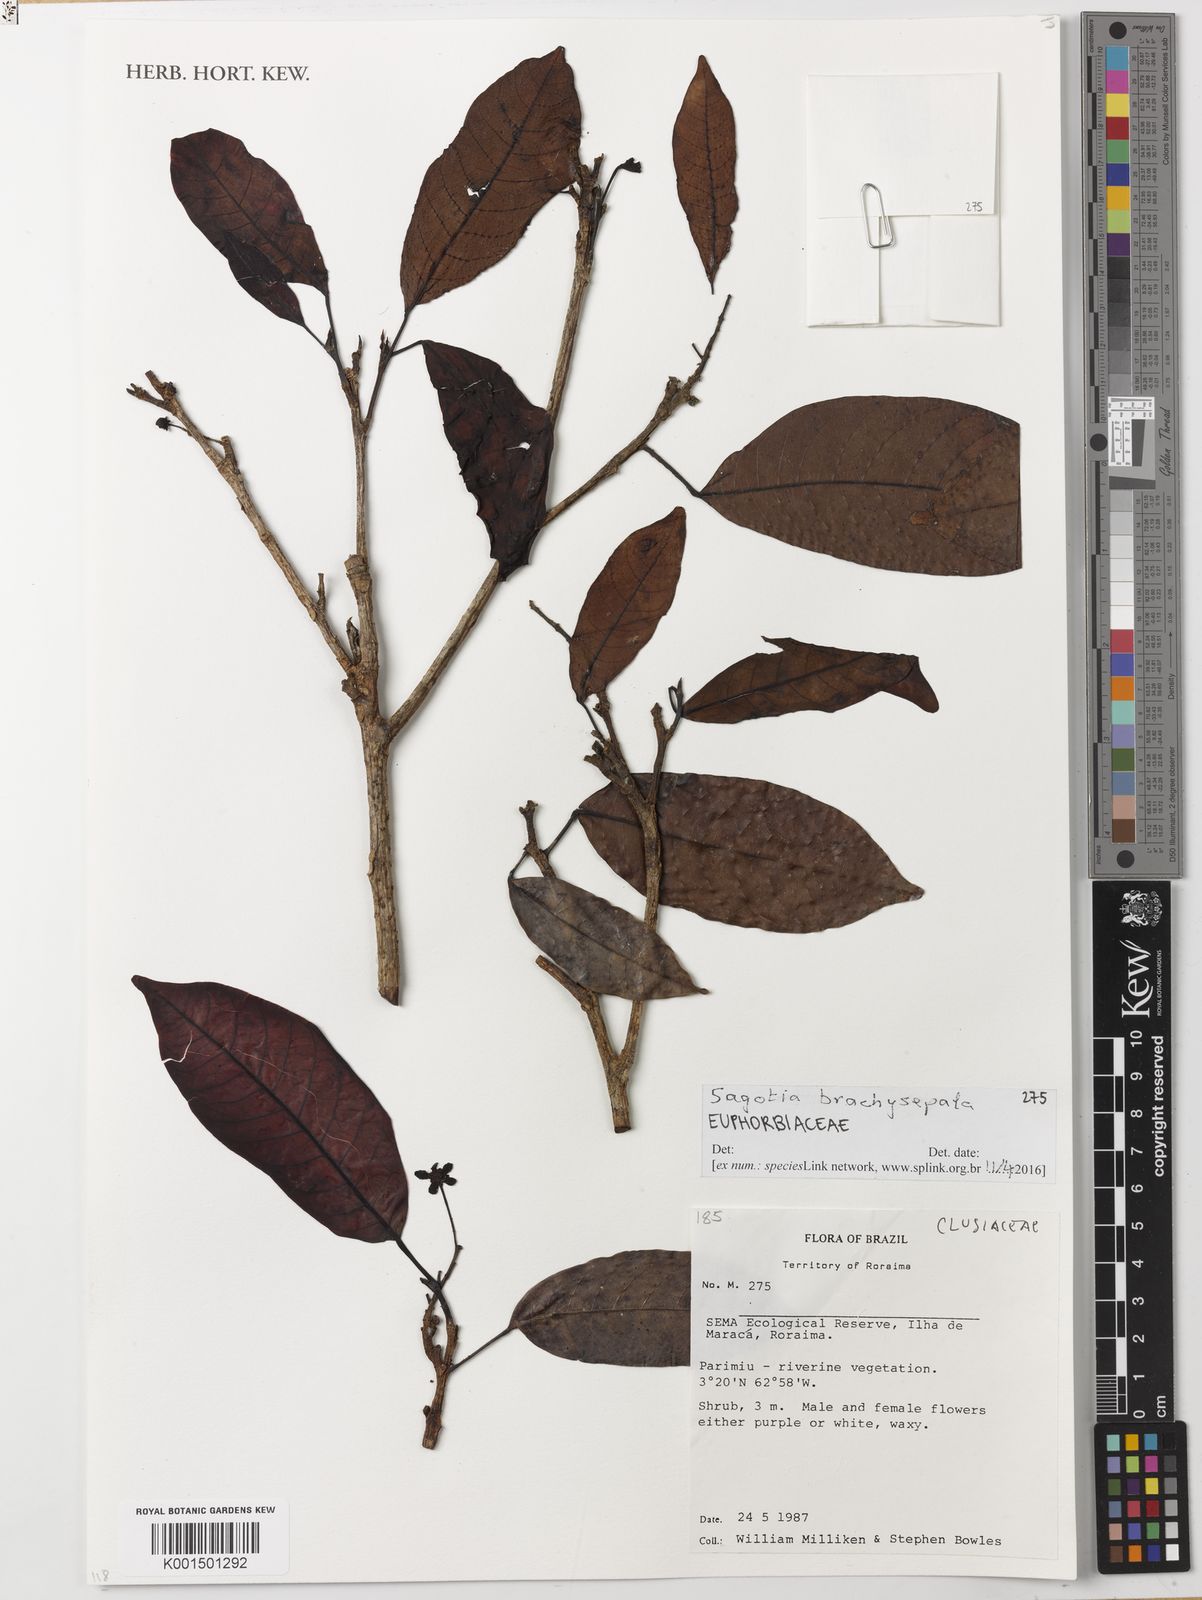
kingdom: Plantae
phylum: Tracheophyta
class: Magnoliopsida
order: Malpighiales
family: Euphorbiaceae
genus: Sagotia
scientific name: Sagotia brachysepala
